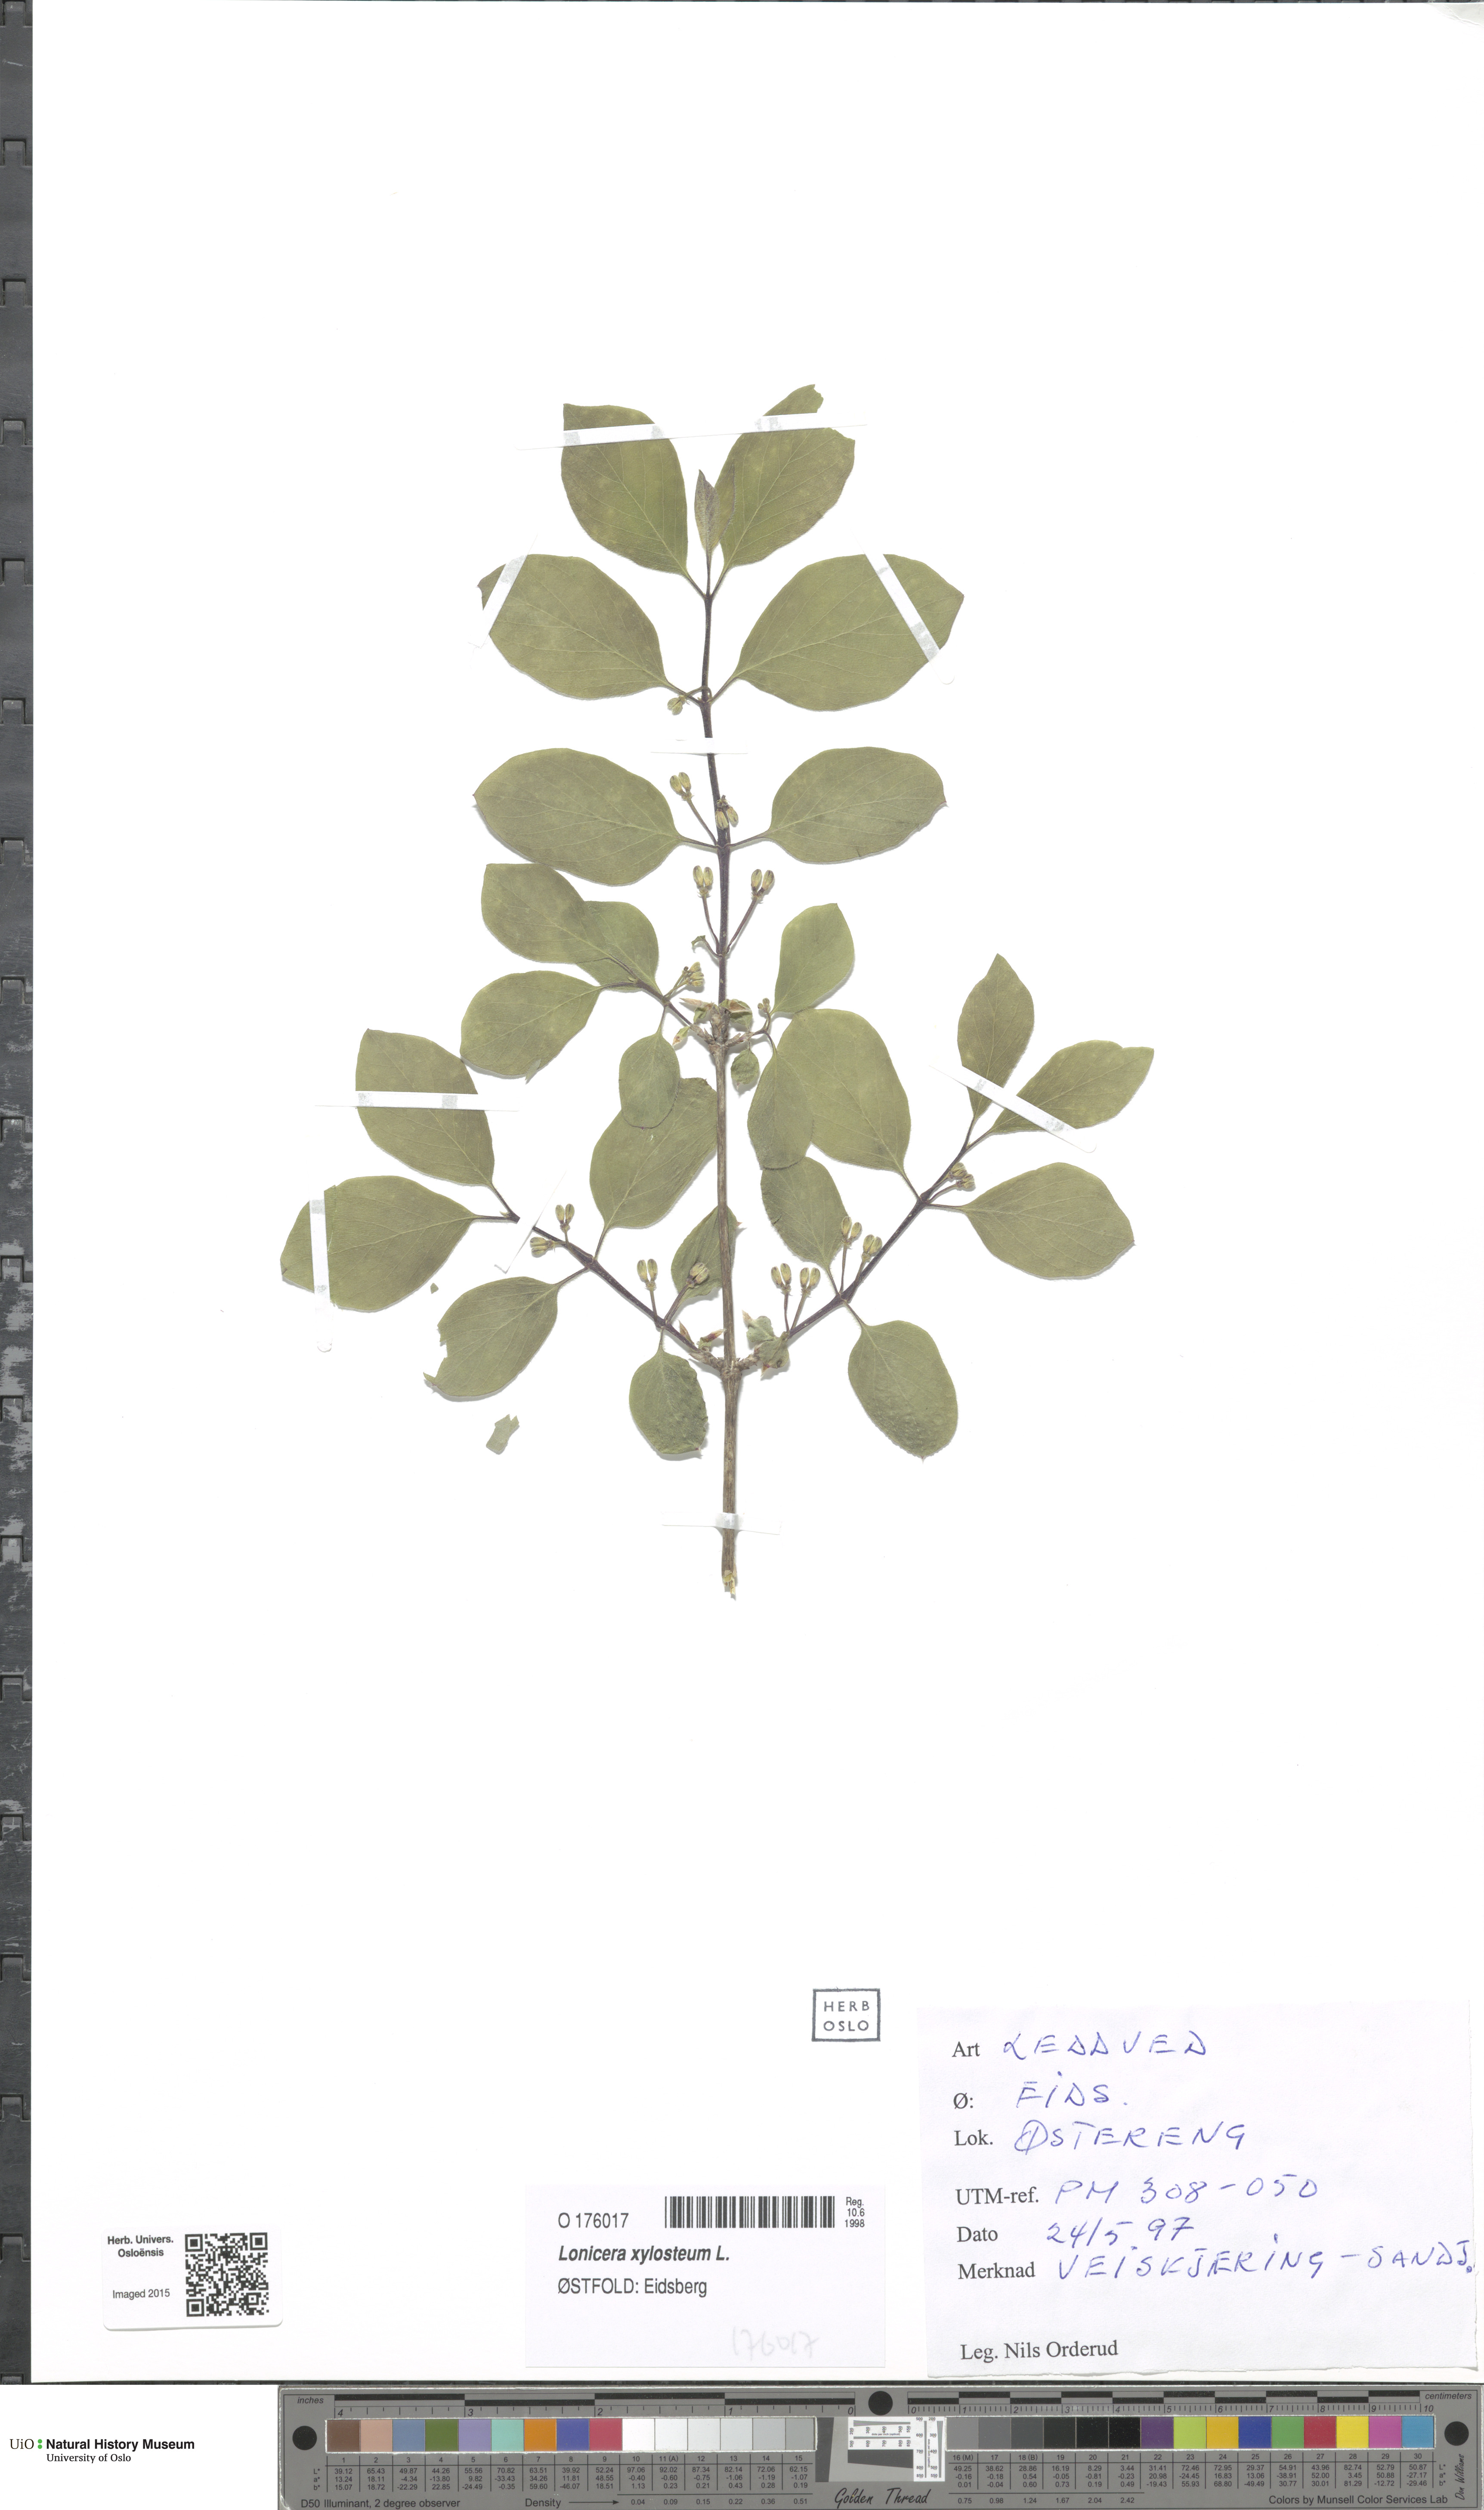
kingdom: Plantae
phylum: Tracheophyta
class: Magnoliopsida
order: Dipsacales
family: Caprifoliaceae
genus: Lonicera
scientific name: Lonicera xylosteum
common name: Fly honeysuckle
